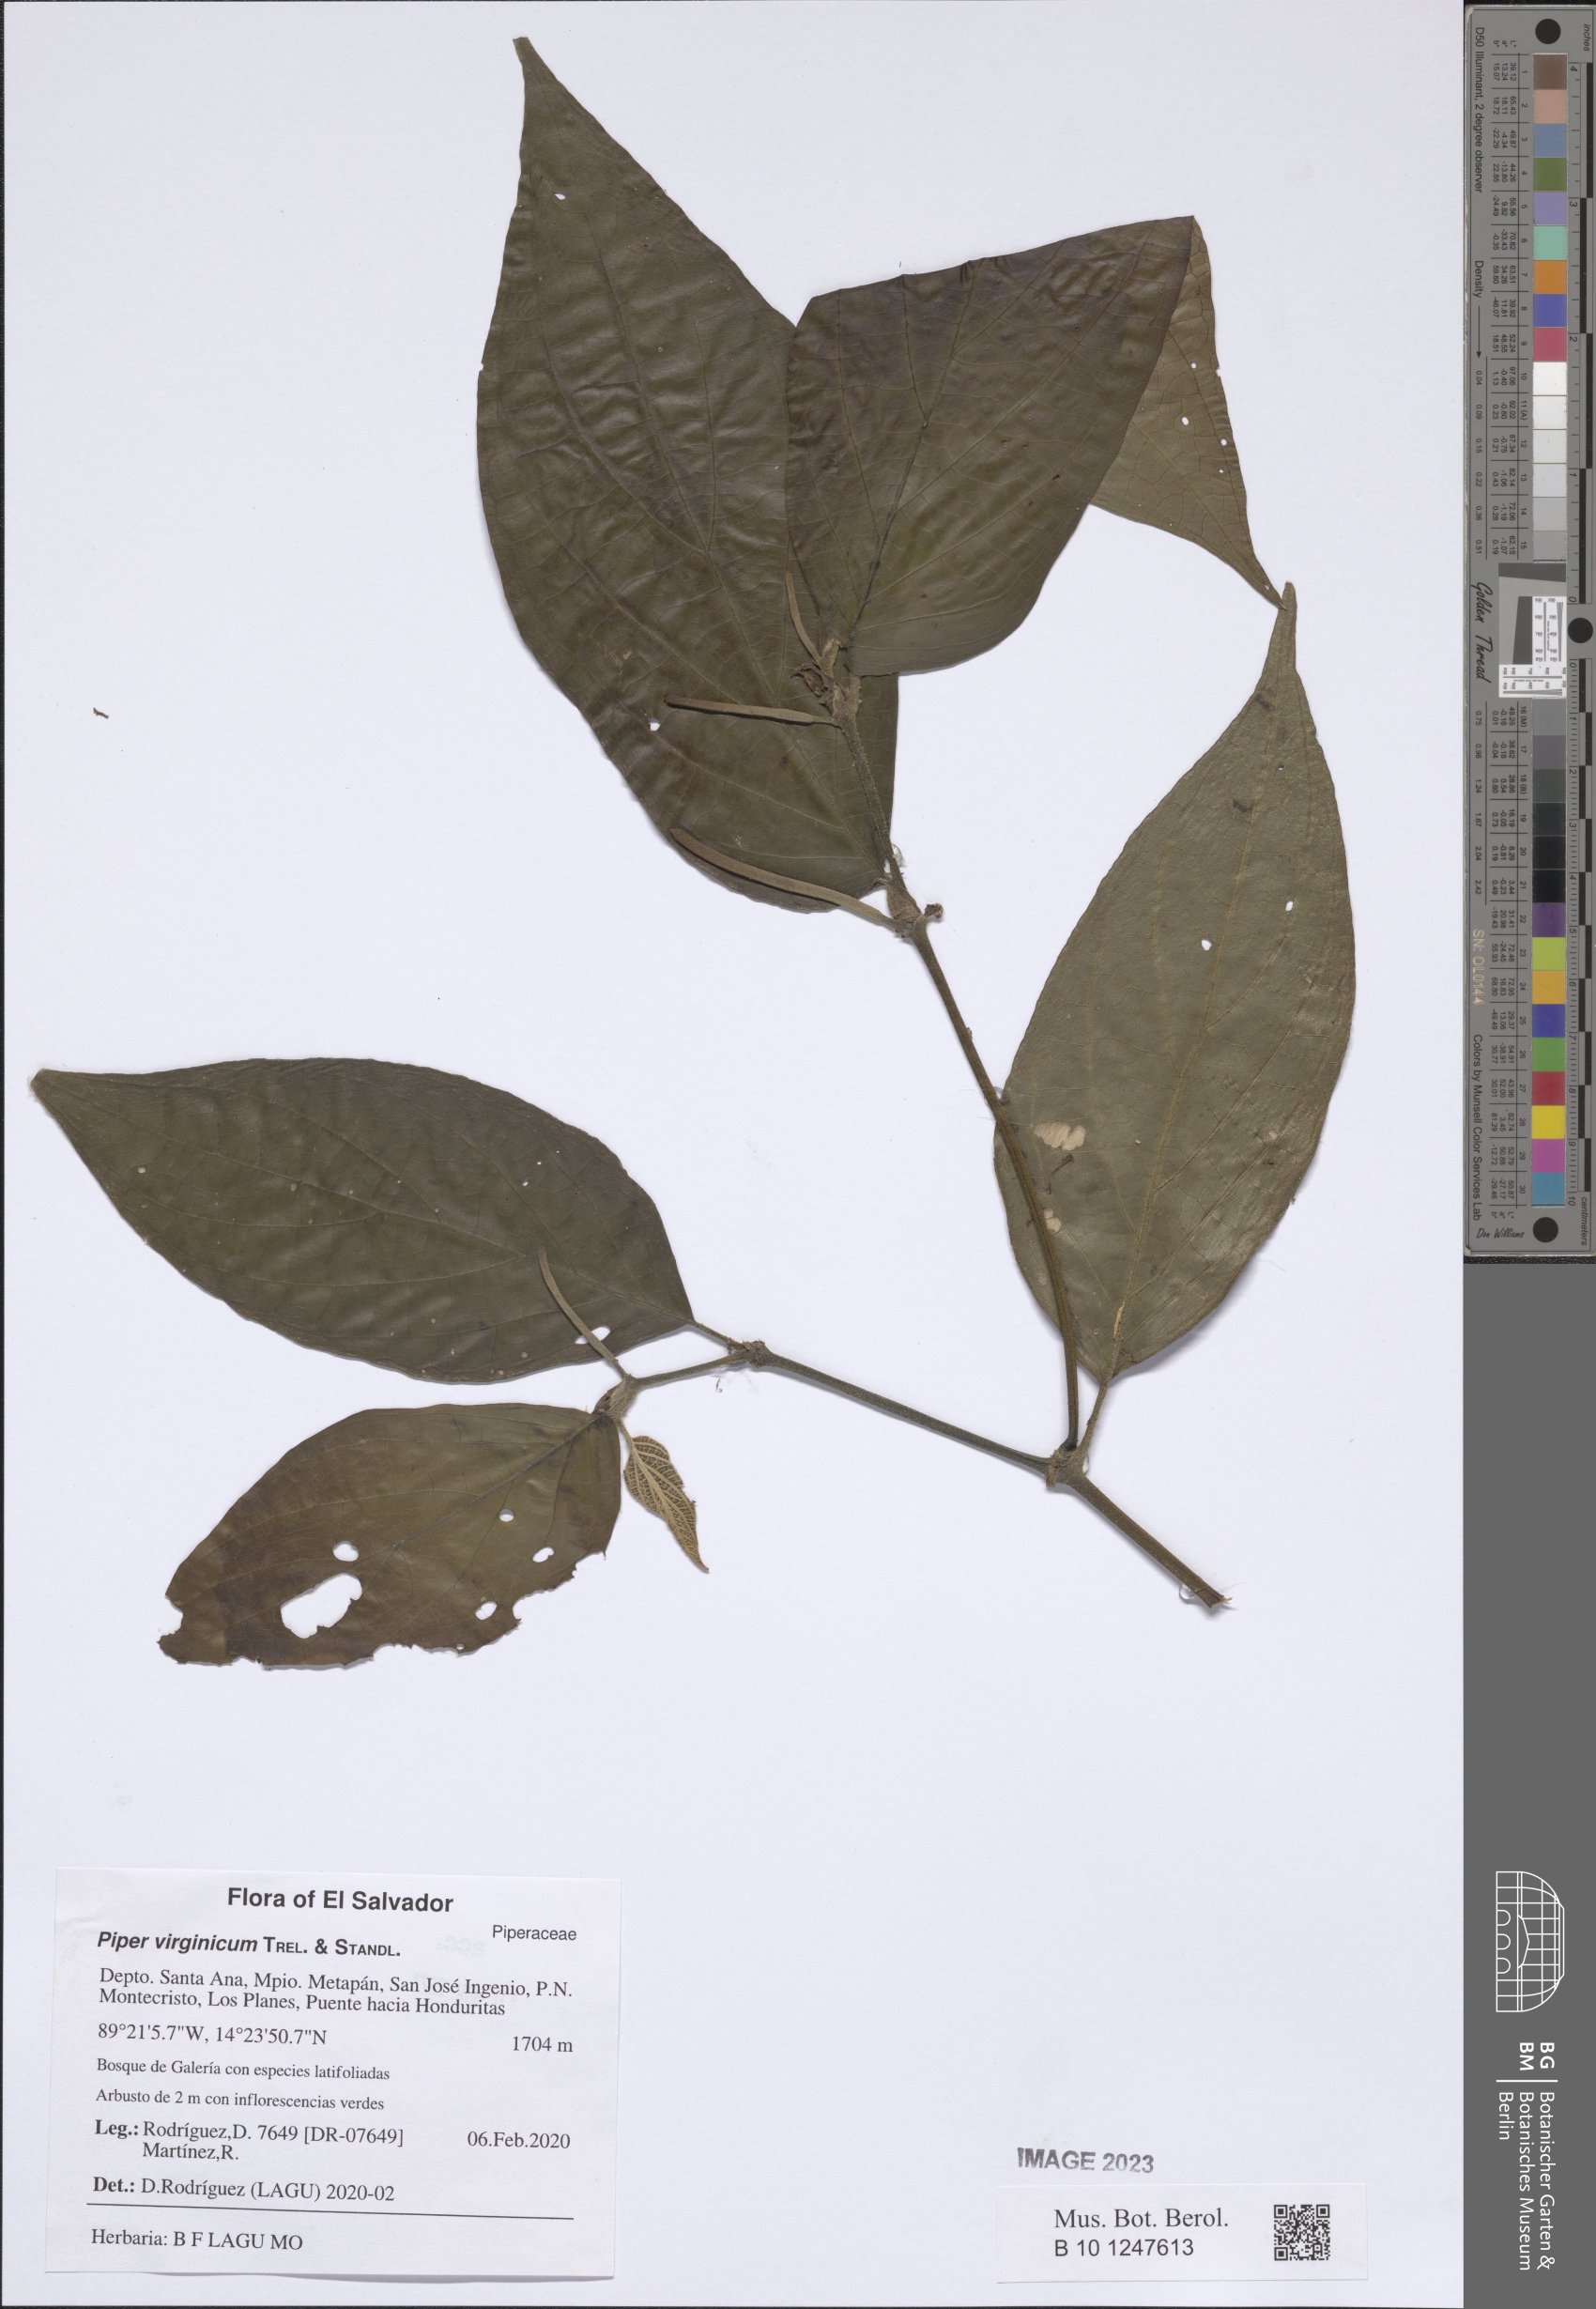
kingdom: Plantae
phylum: Tracheophyta
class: Magnoliopsida
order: Piperales
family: Piperaceae
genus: Piper
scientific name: Piper virginicum
